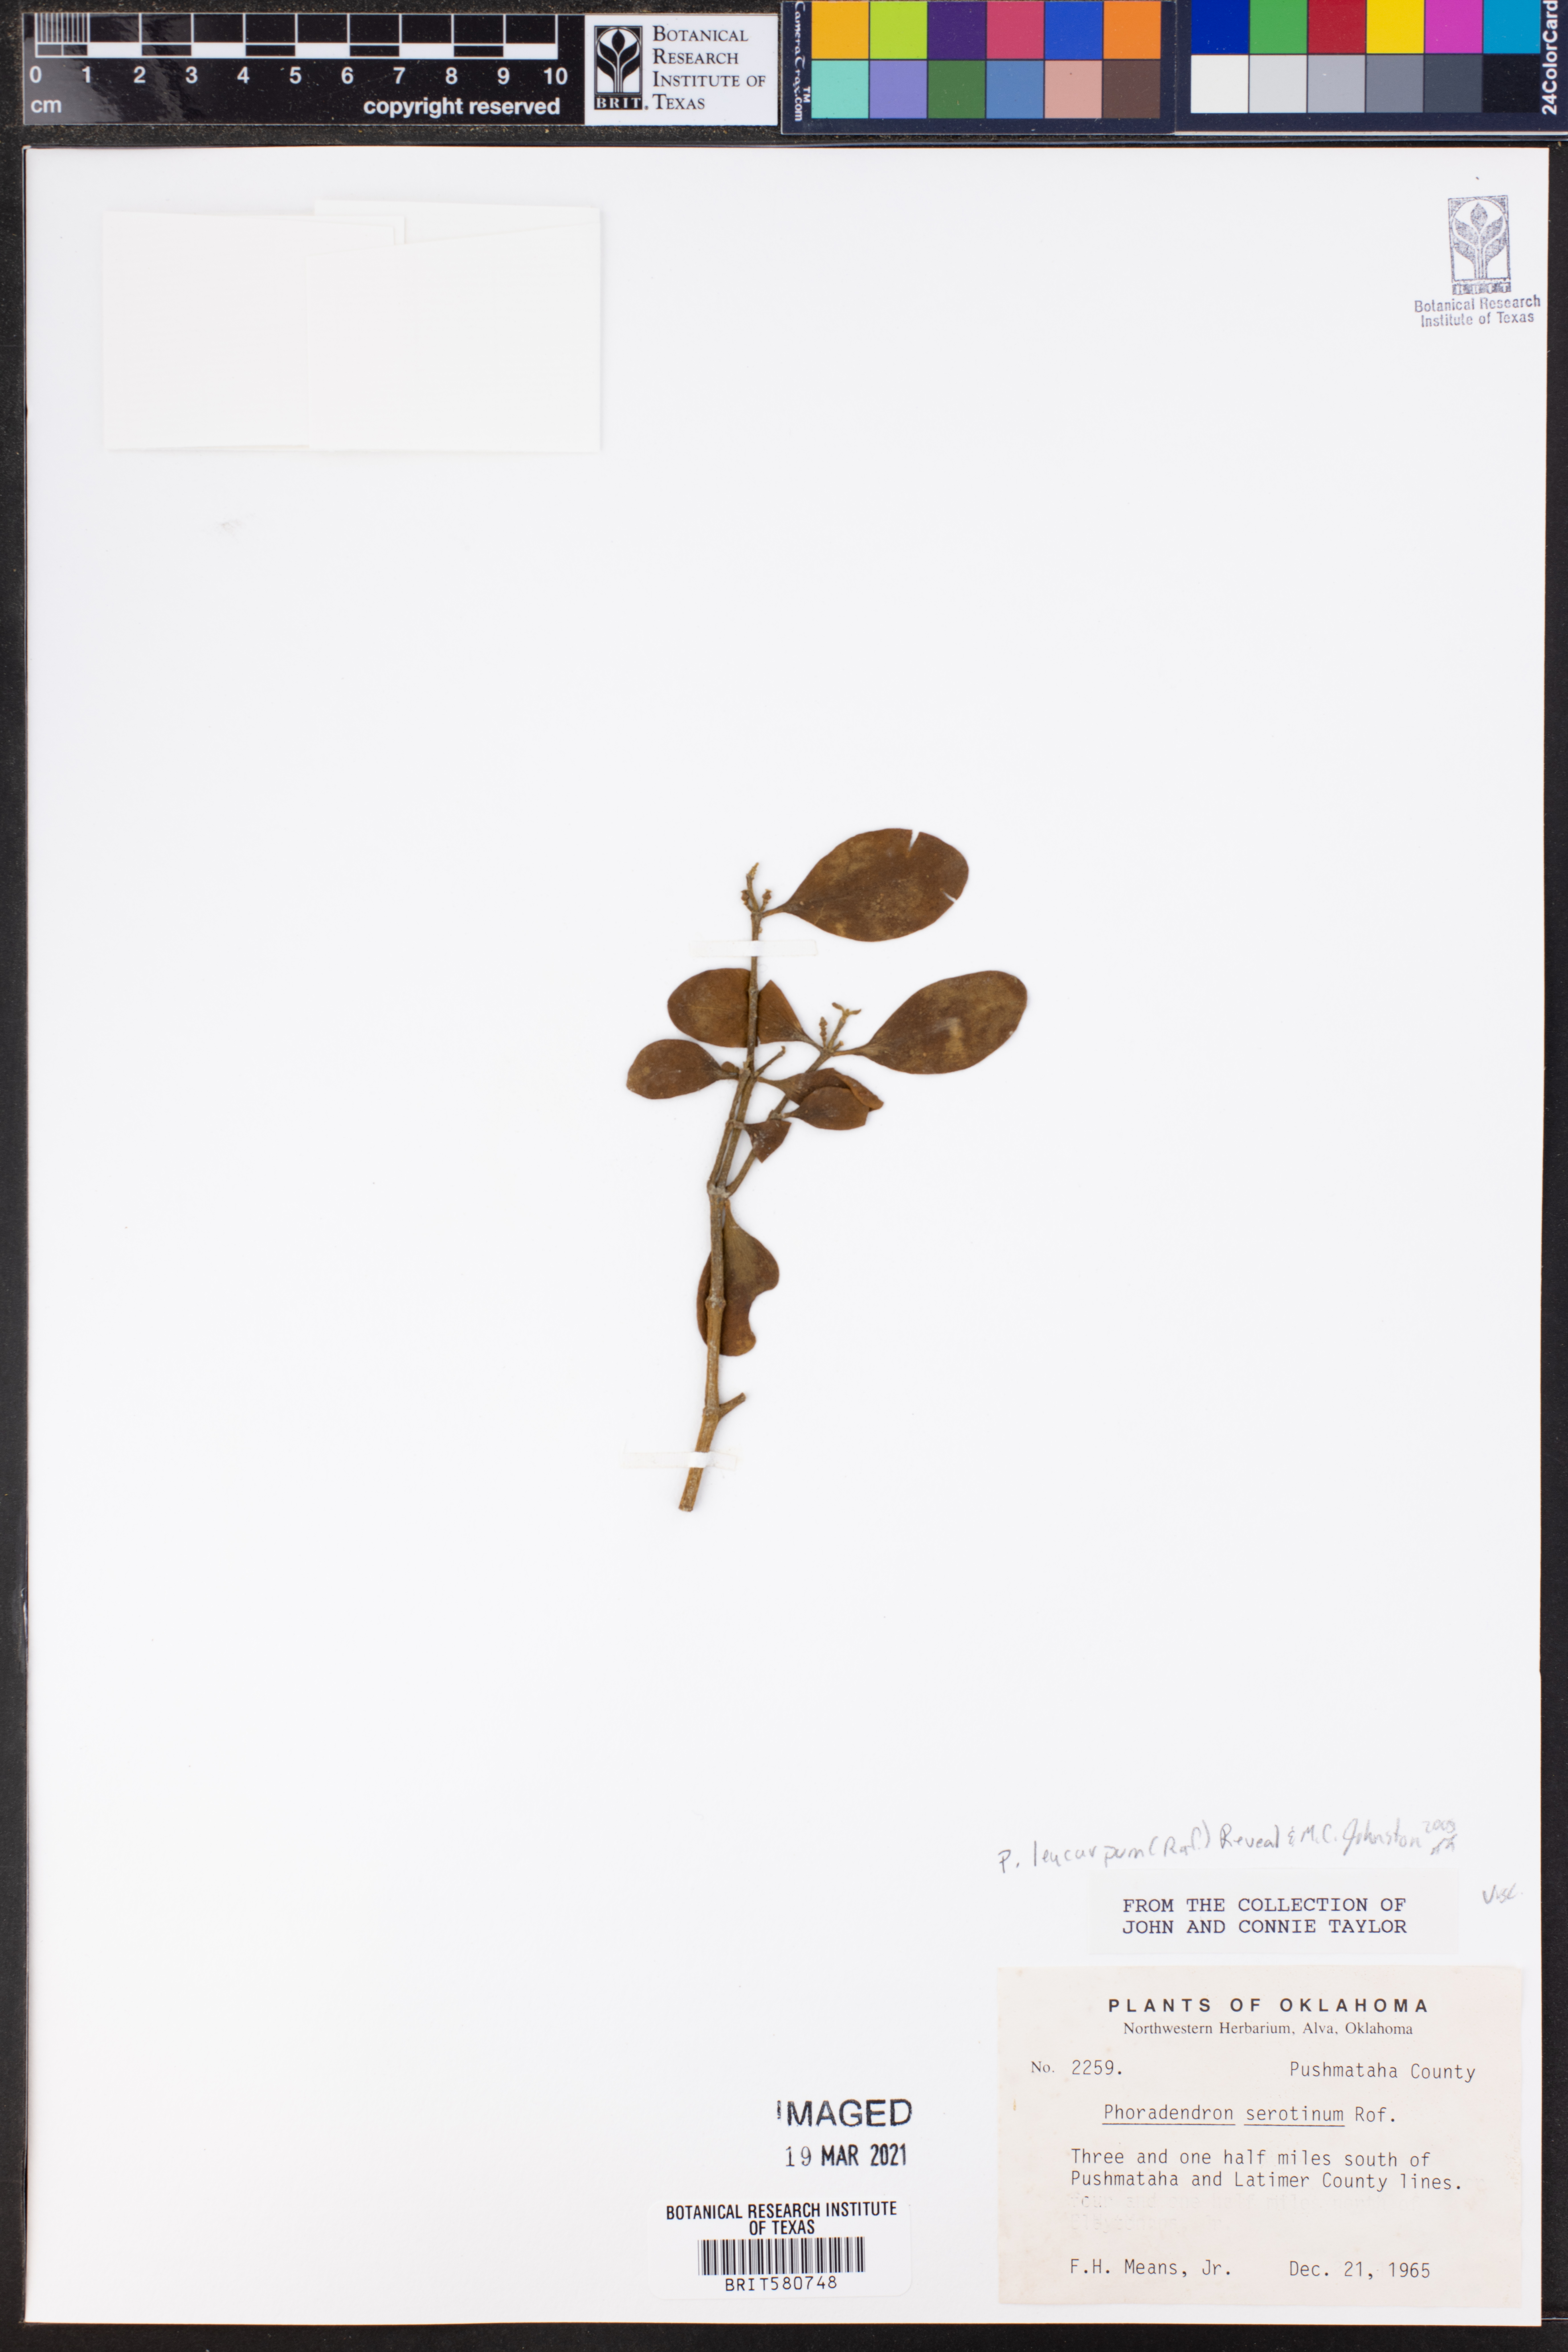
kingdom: Plantae
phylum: Tracheophyta
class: Magnoliopsida
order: Santalales
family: Viscaceae
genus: Phoradendron
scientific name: Phoradendron leucarpum
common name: Pacific mistletoe
